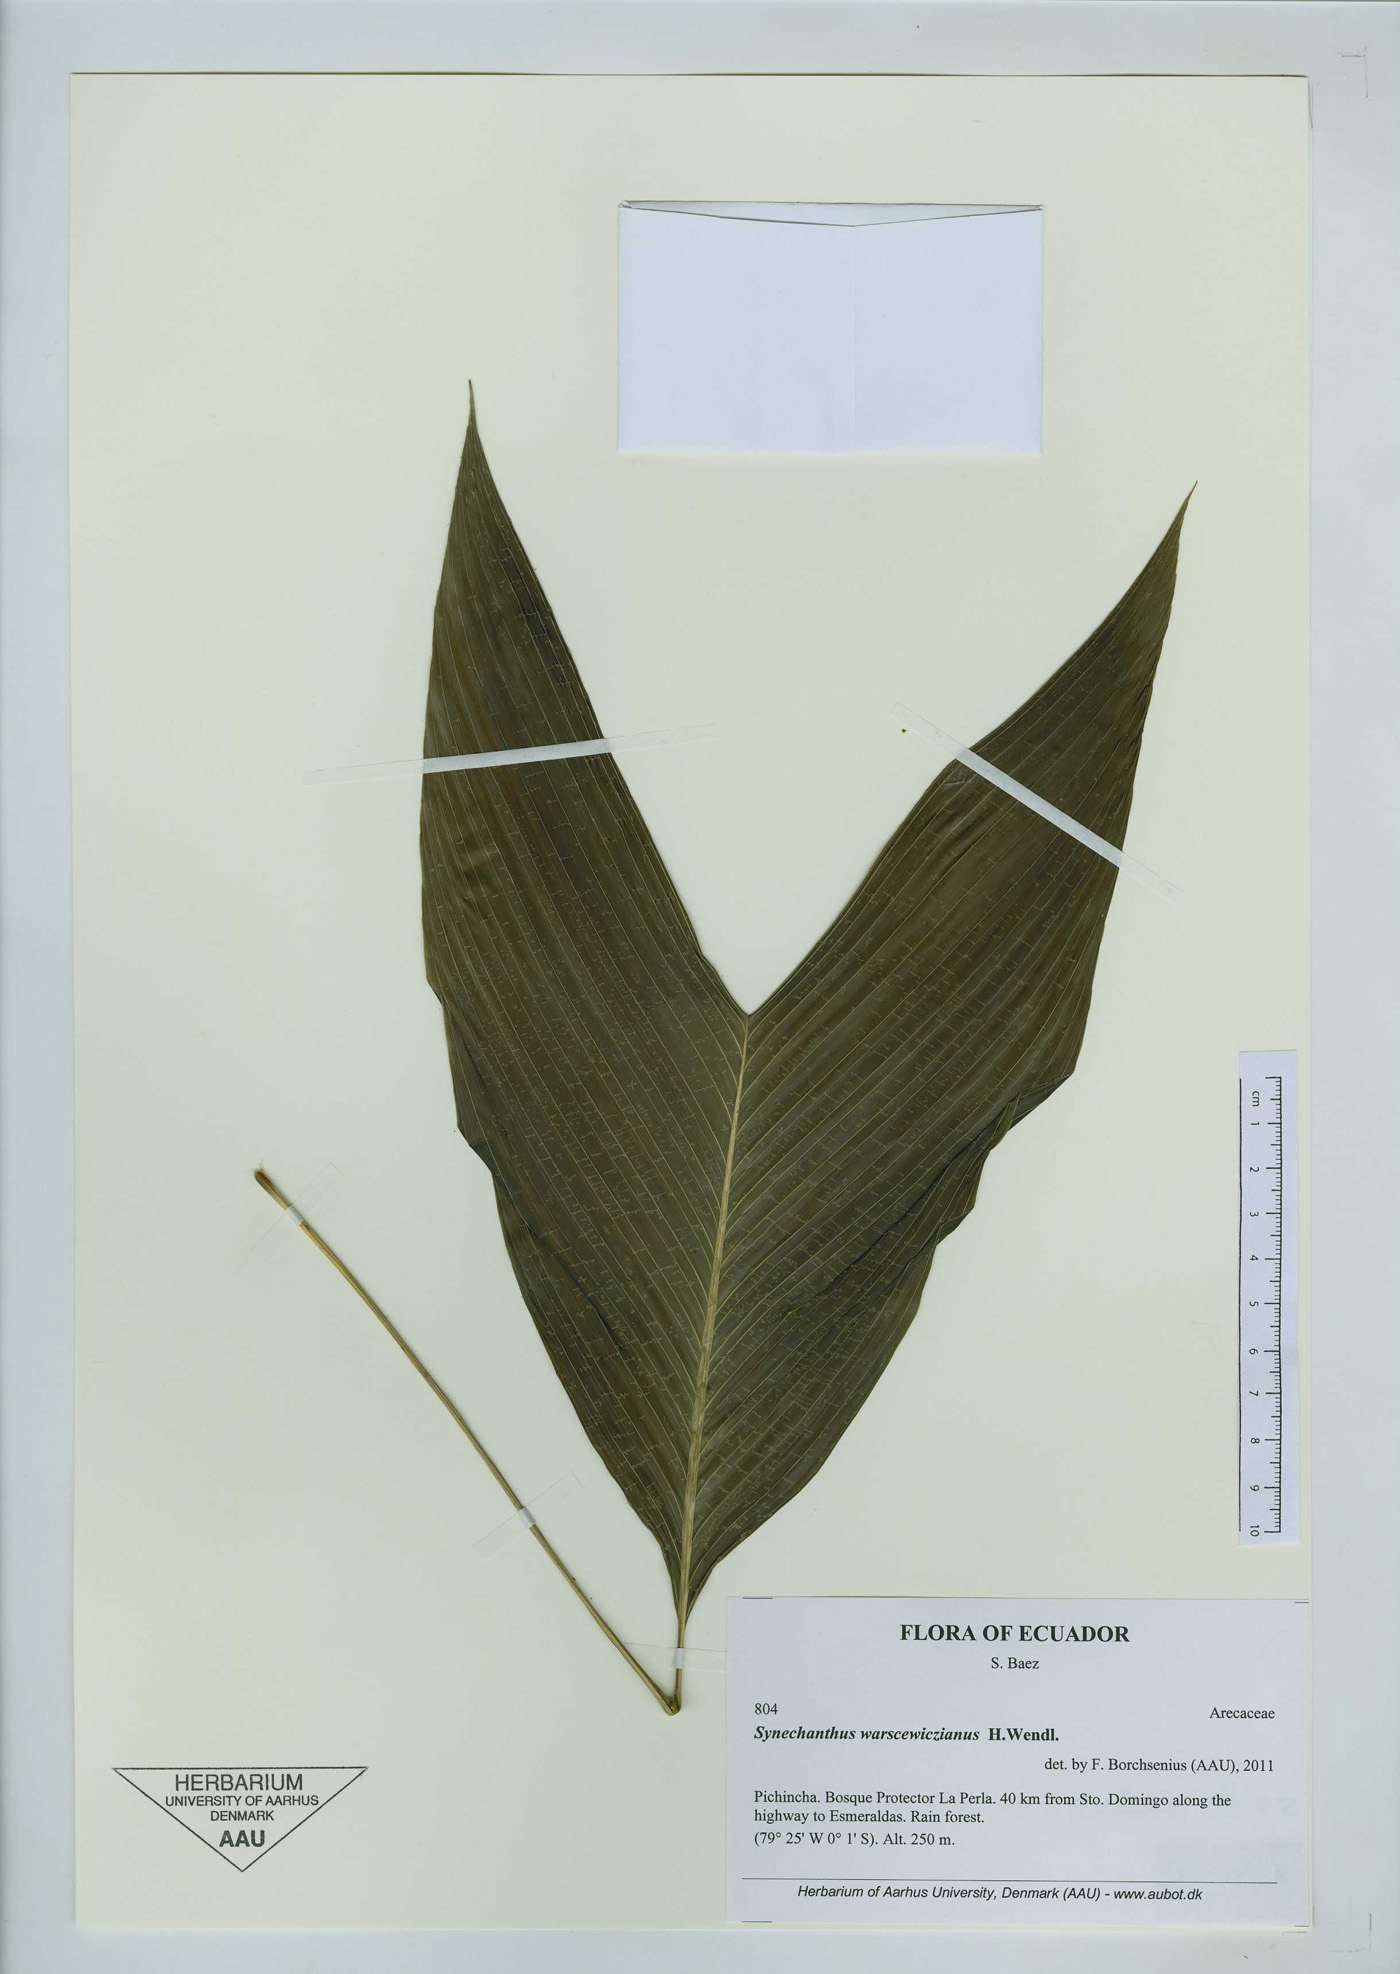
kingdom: Plantae
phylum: Tracheophyta
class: Liliopsida
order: Arecales
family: Arecaceae
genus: Synechanthus
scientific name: Synechanthus warscewiczianus
